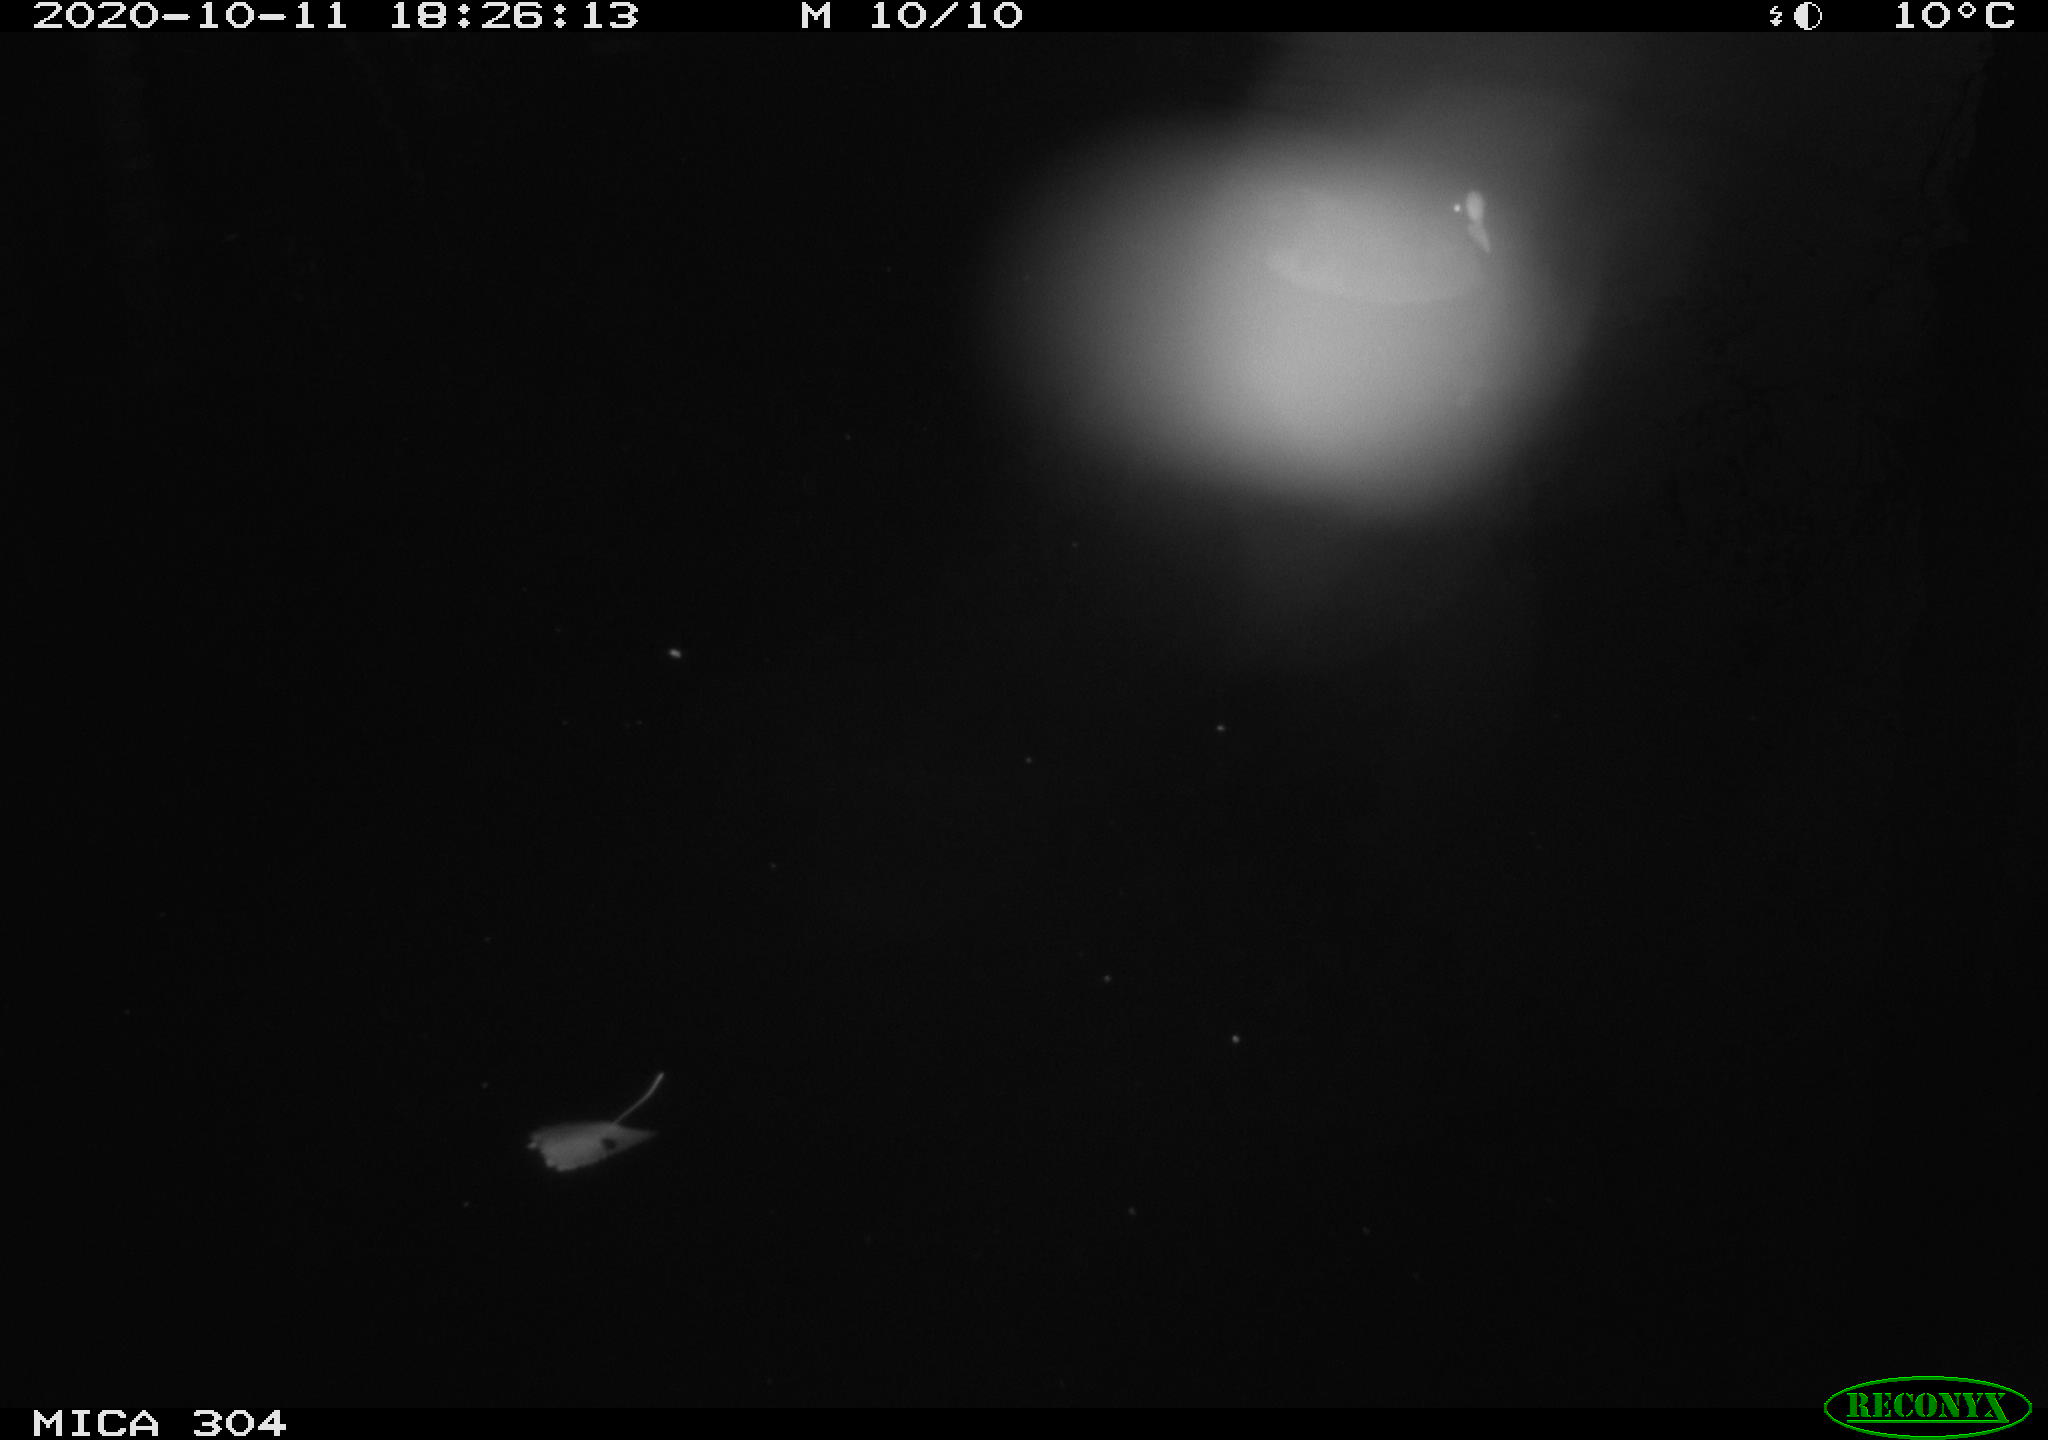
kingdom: Animalia
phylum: Chordata
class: Aves
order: Gruiformes
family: Rallidae
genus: Gallinula
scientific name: Gallinula chloropus
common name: Common moorhen
